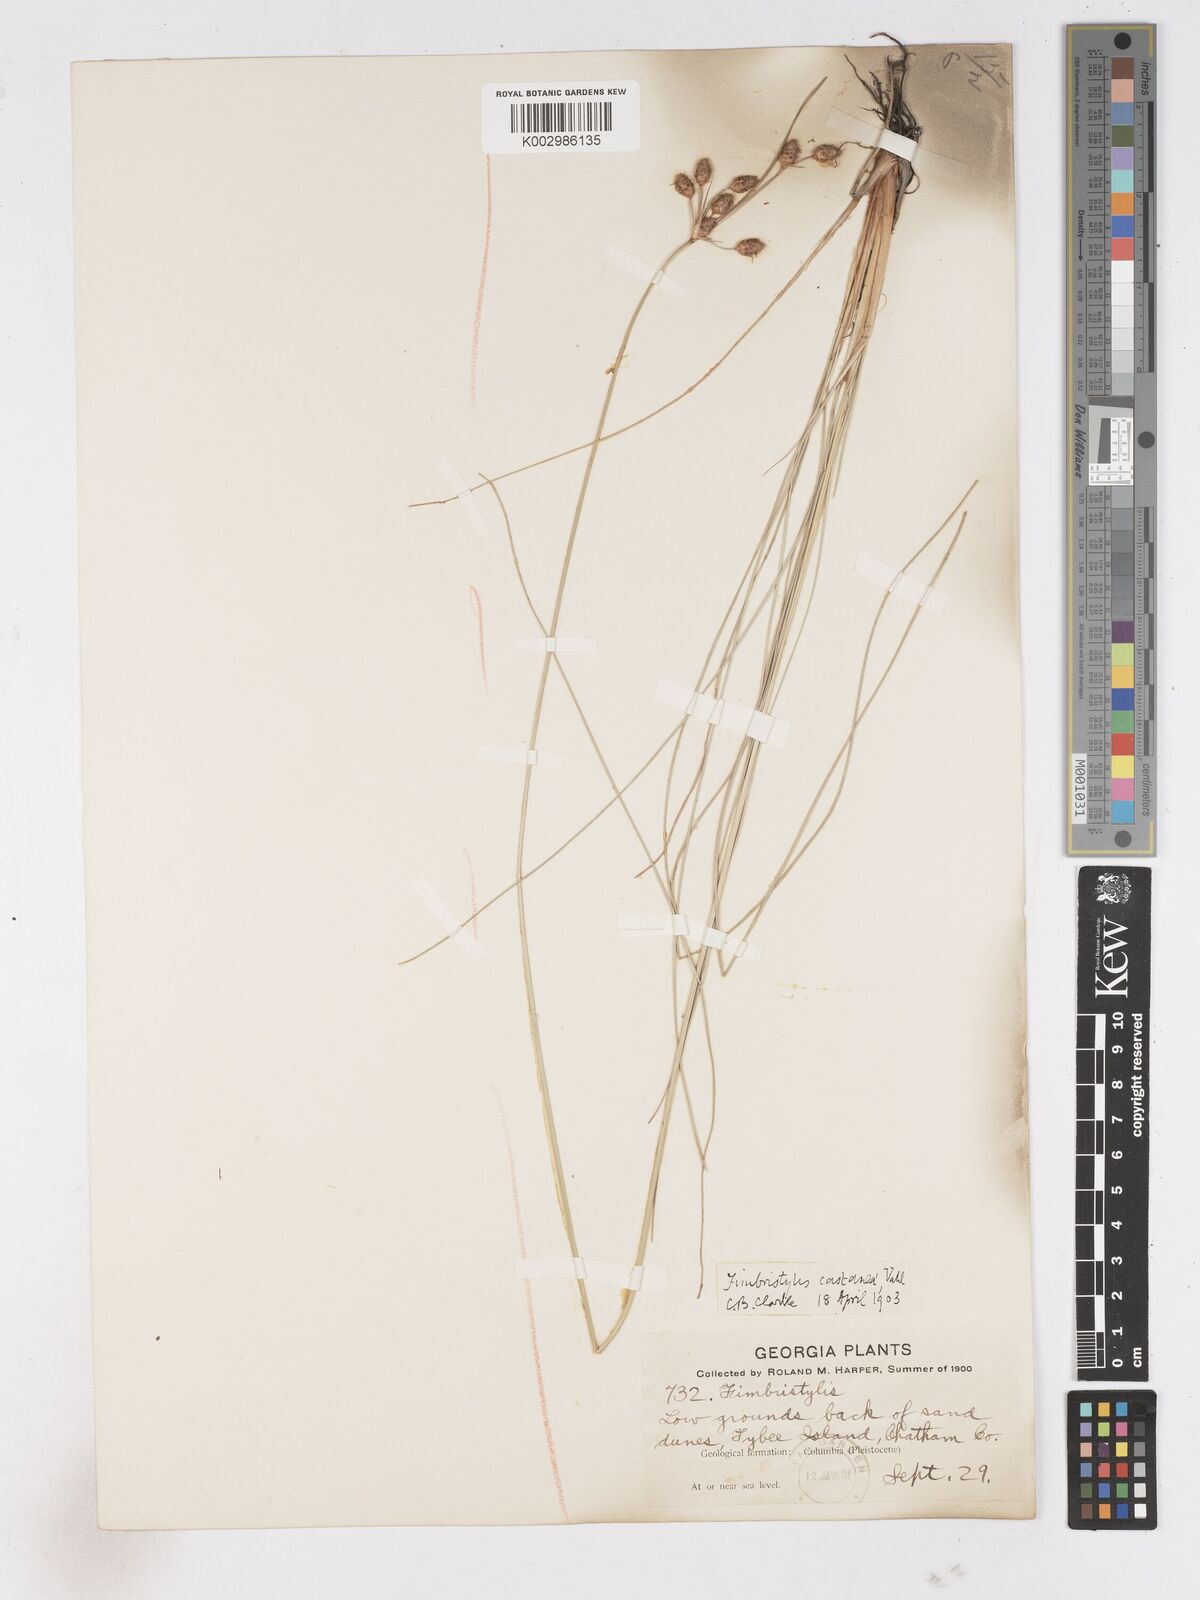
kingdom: Plantae
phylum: Tracheophyta
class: Liliopsida
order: Poales
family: Cyperaceae
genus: Fimbristylis
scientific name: Fimbristylis puberula
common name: Hairy fimbristylis
